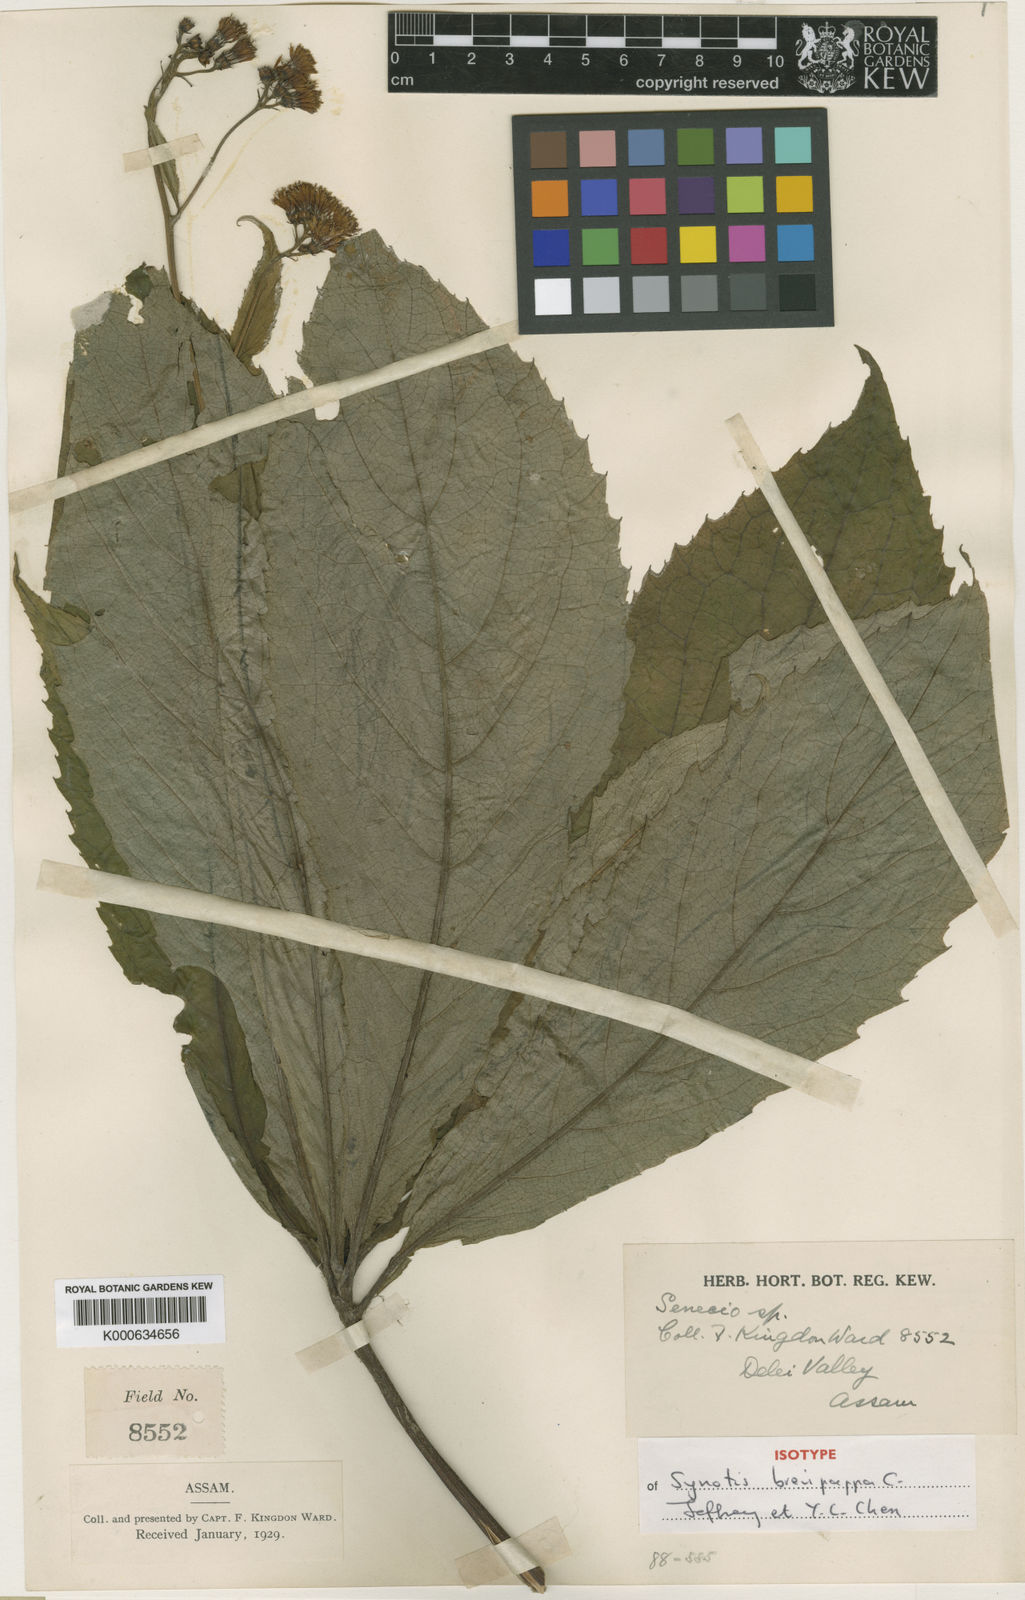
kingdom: Plantae
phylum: Tracheophyta
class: Magnoliopsida
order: Asterales
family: Asteraceae
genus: Synotis
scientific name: Synotis brevipappa
